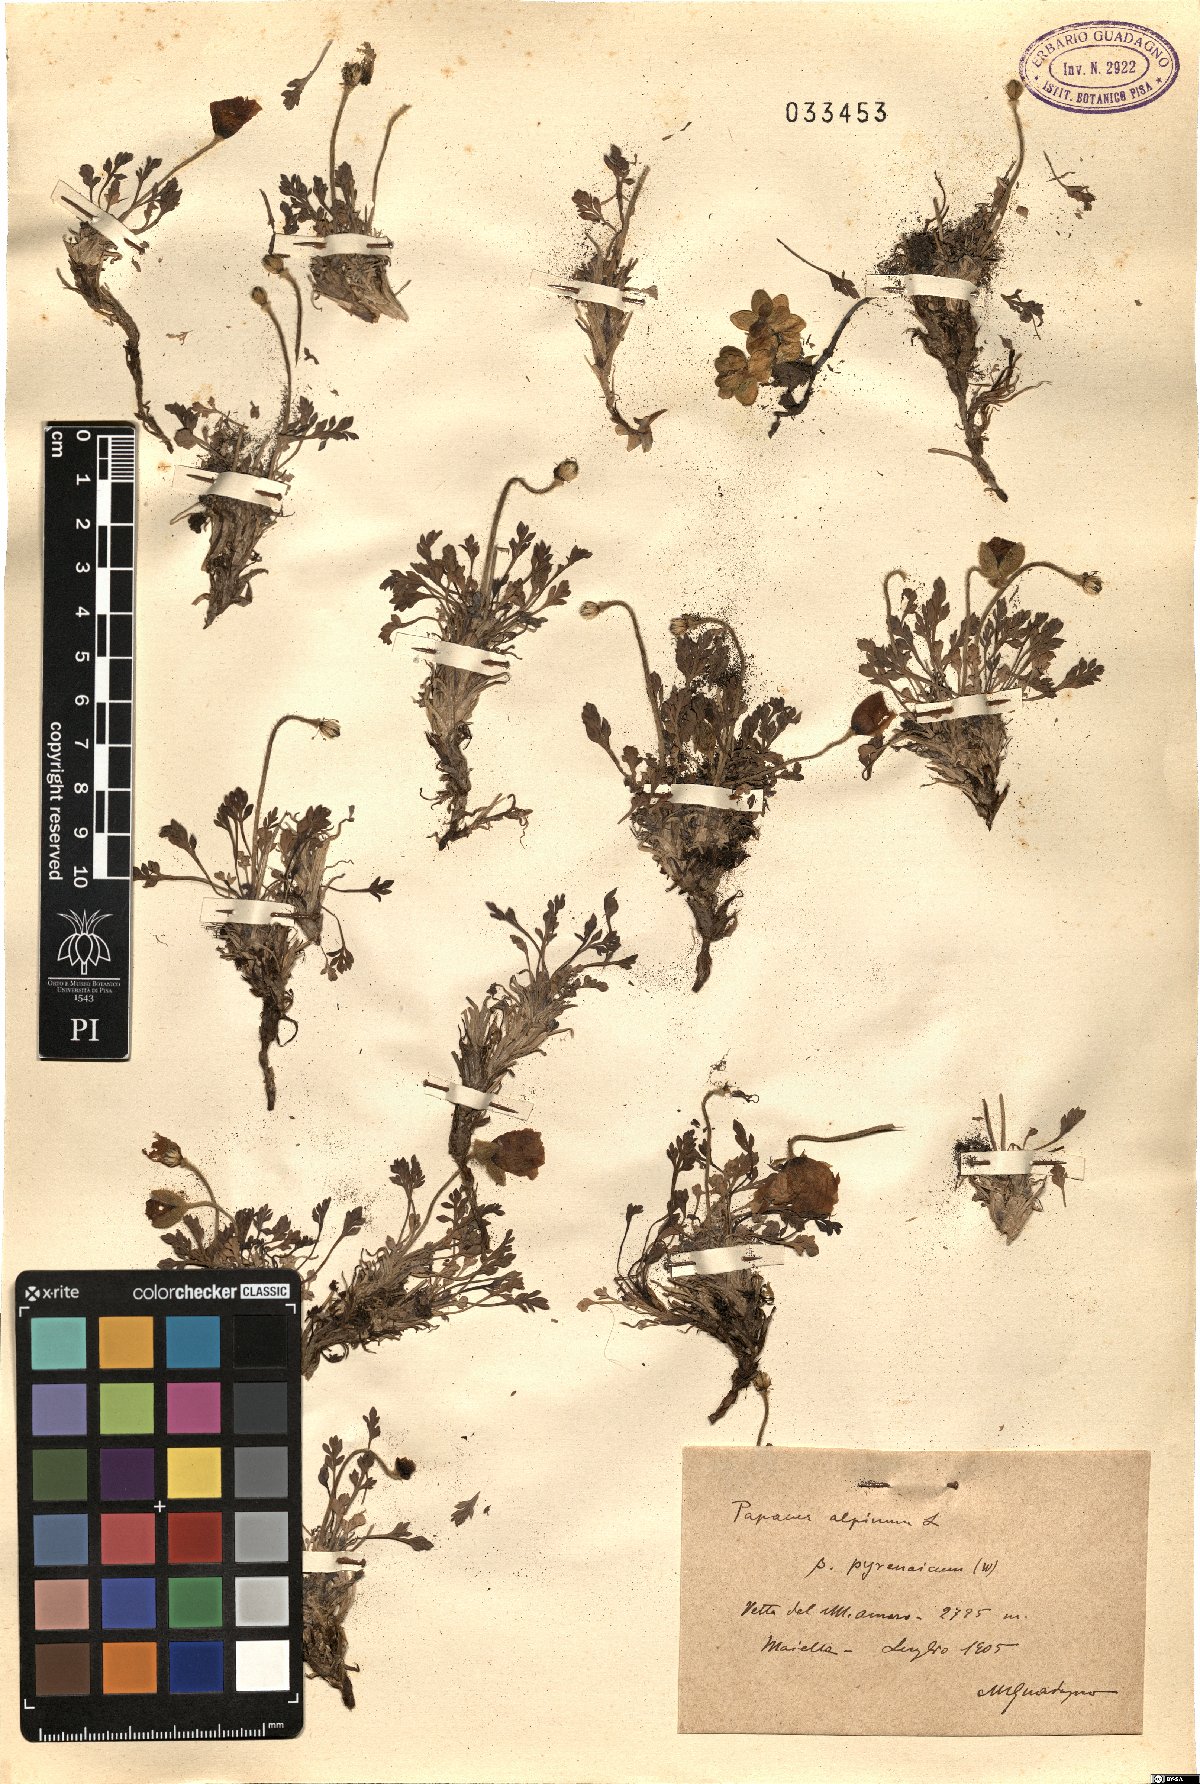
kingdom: Plantae
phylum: Tracheophyta
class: Magnoliopsida
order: Ranunculales
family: Papaveraceae
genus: Papaver
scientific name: Papaver alpinum
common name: Austrian poppy
